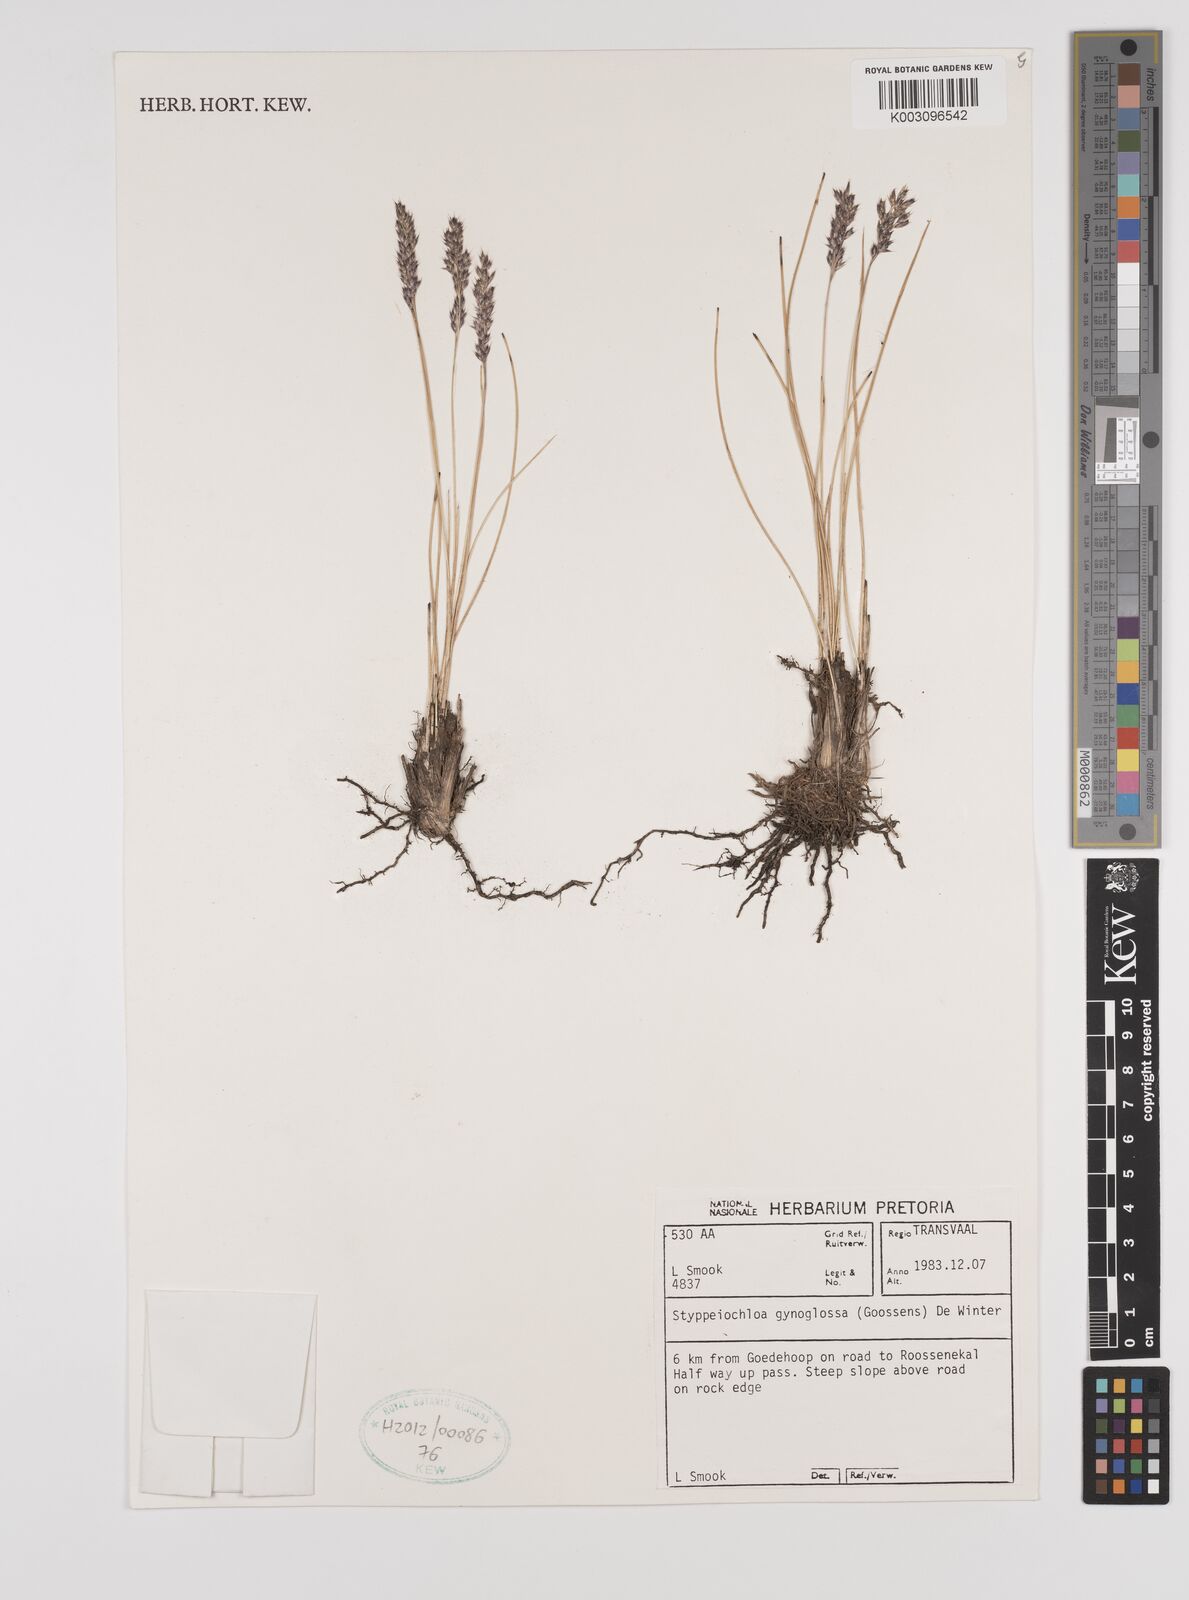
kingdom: Plantae
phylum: Tracheophyta
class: Liliopsida
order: Poales
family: Poaceae
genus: Styppeiochloa
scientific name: Styppeiochloa gynoglossa
